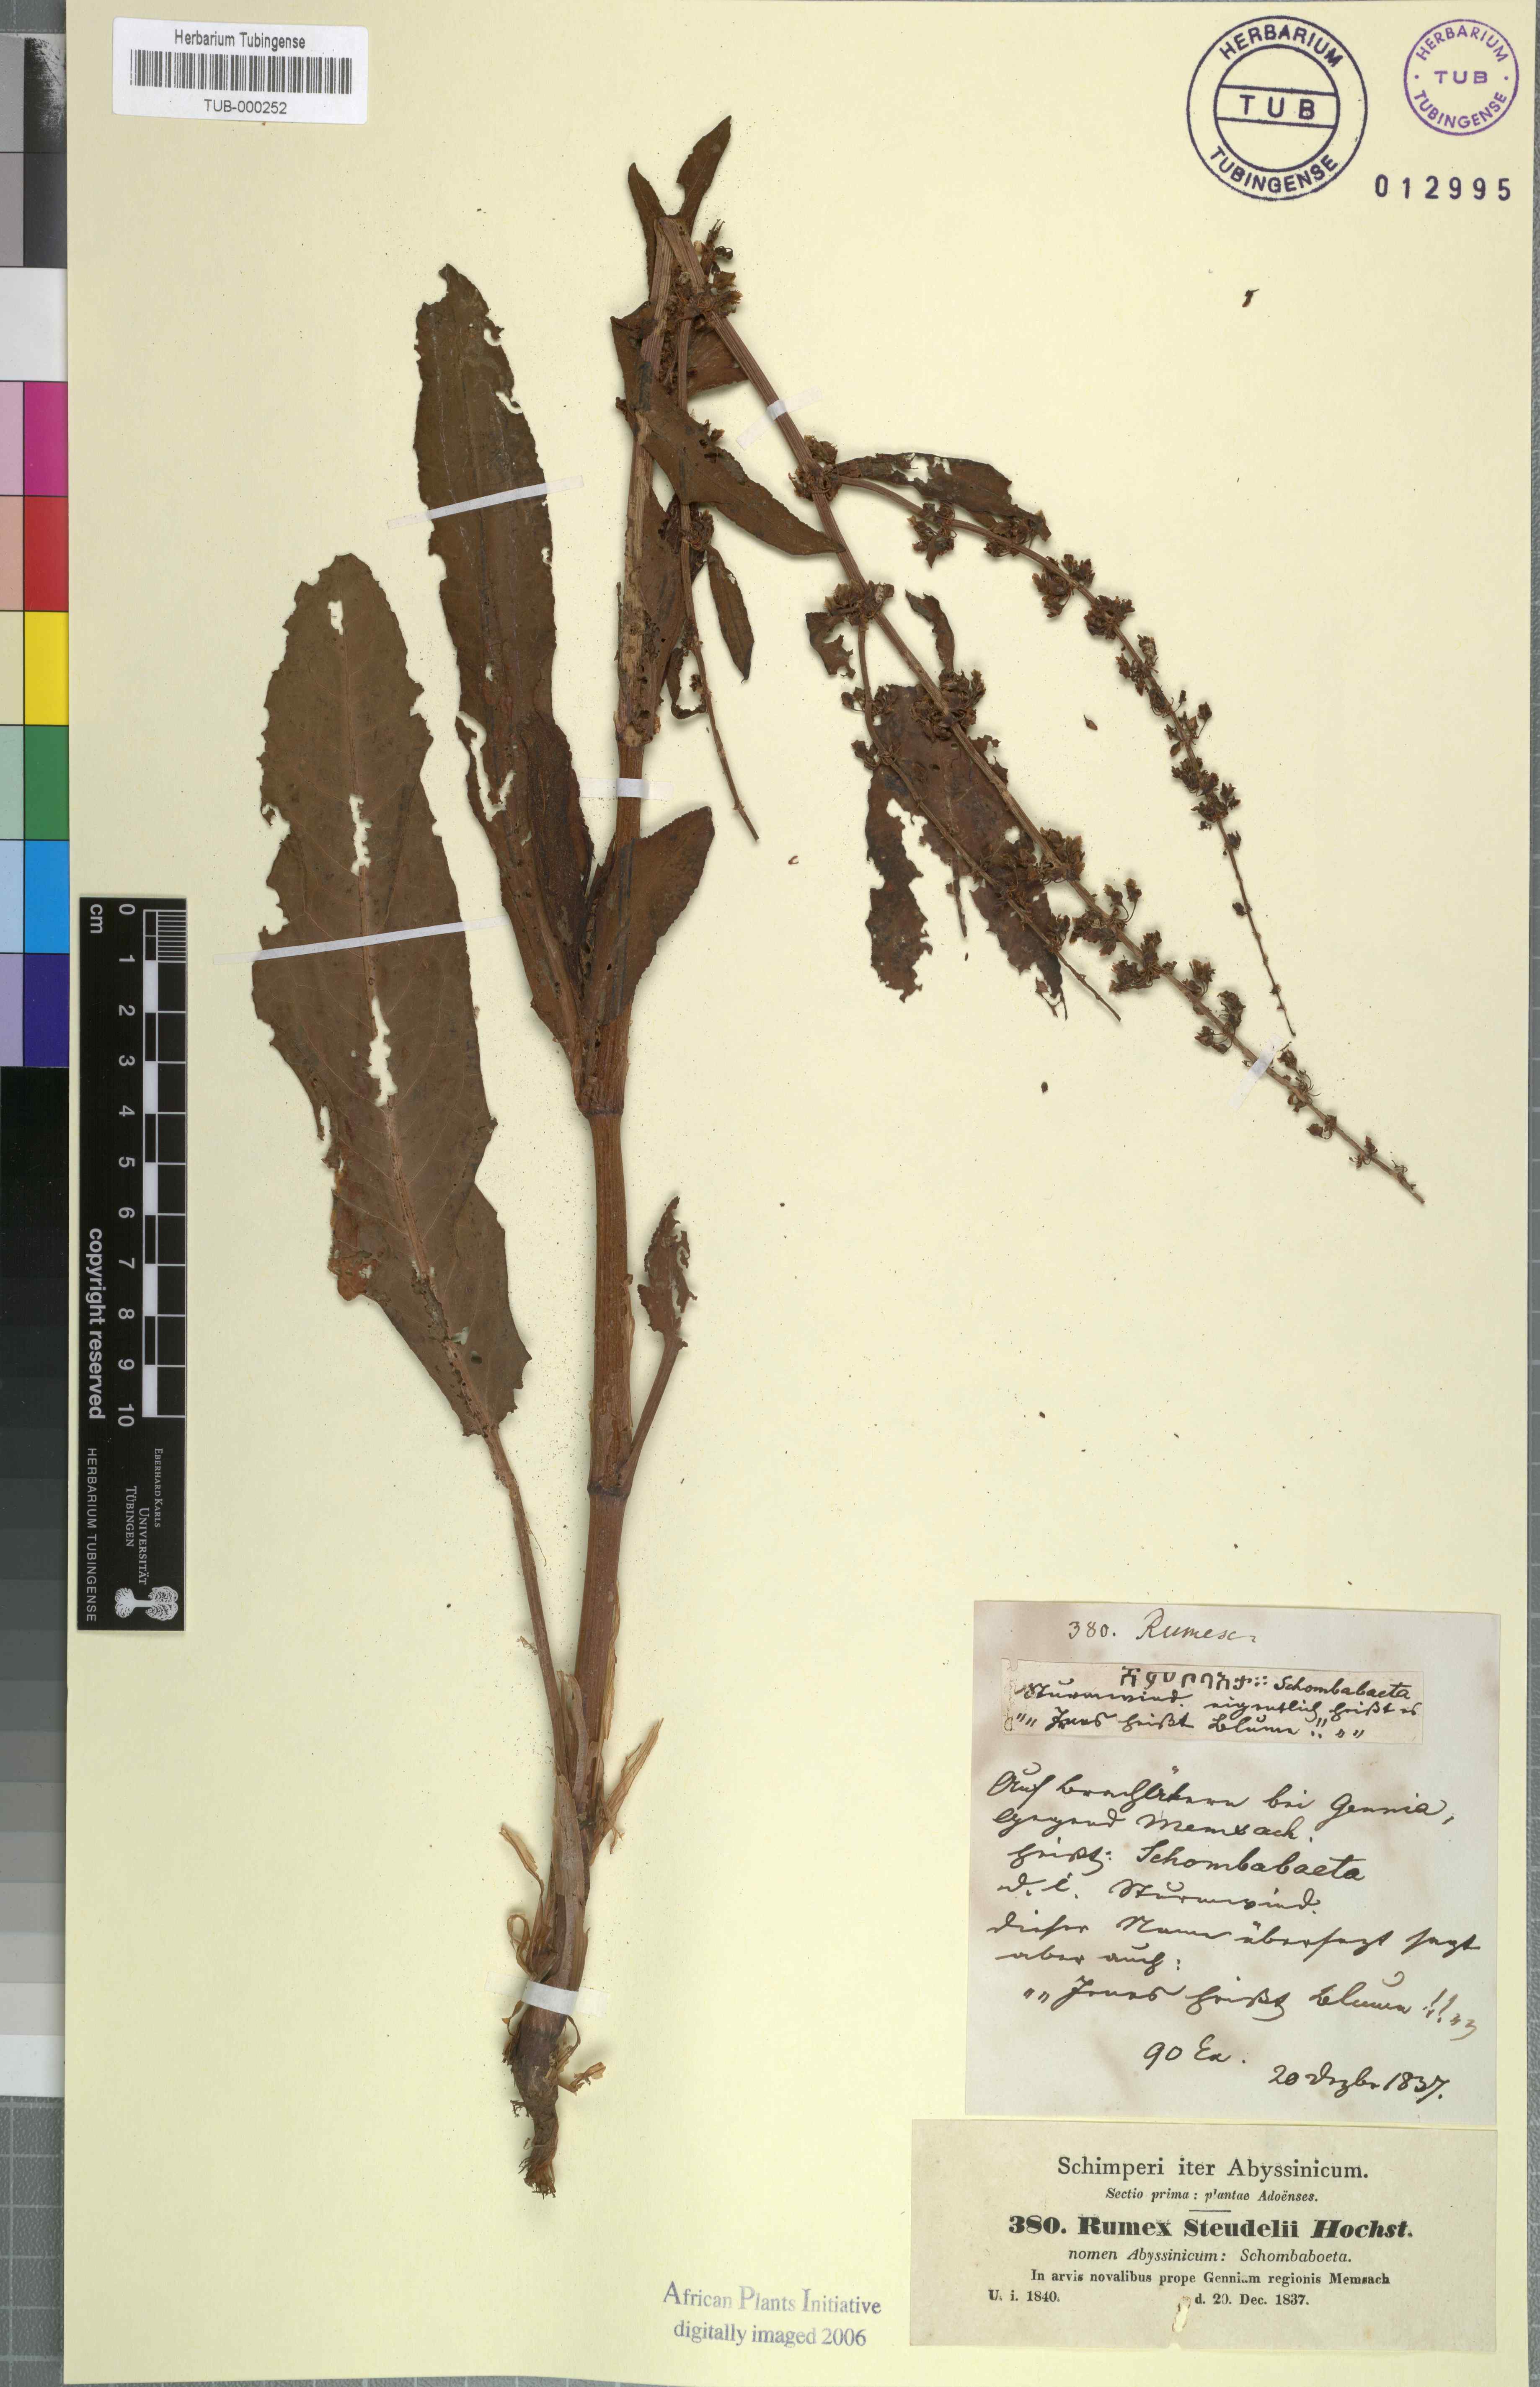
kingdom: Plantae
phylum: Tracheophyta
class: Magnoliopsida
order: Caryophyllales
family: Polygonaceae
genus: Rumex
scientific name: Rumex obtusifolius
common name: Bitter dock
